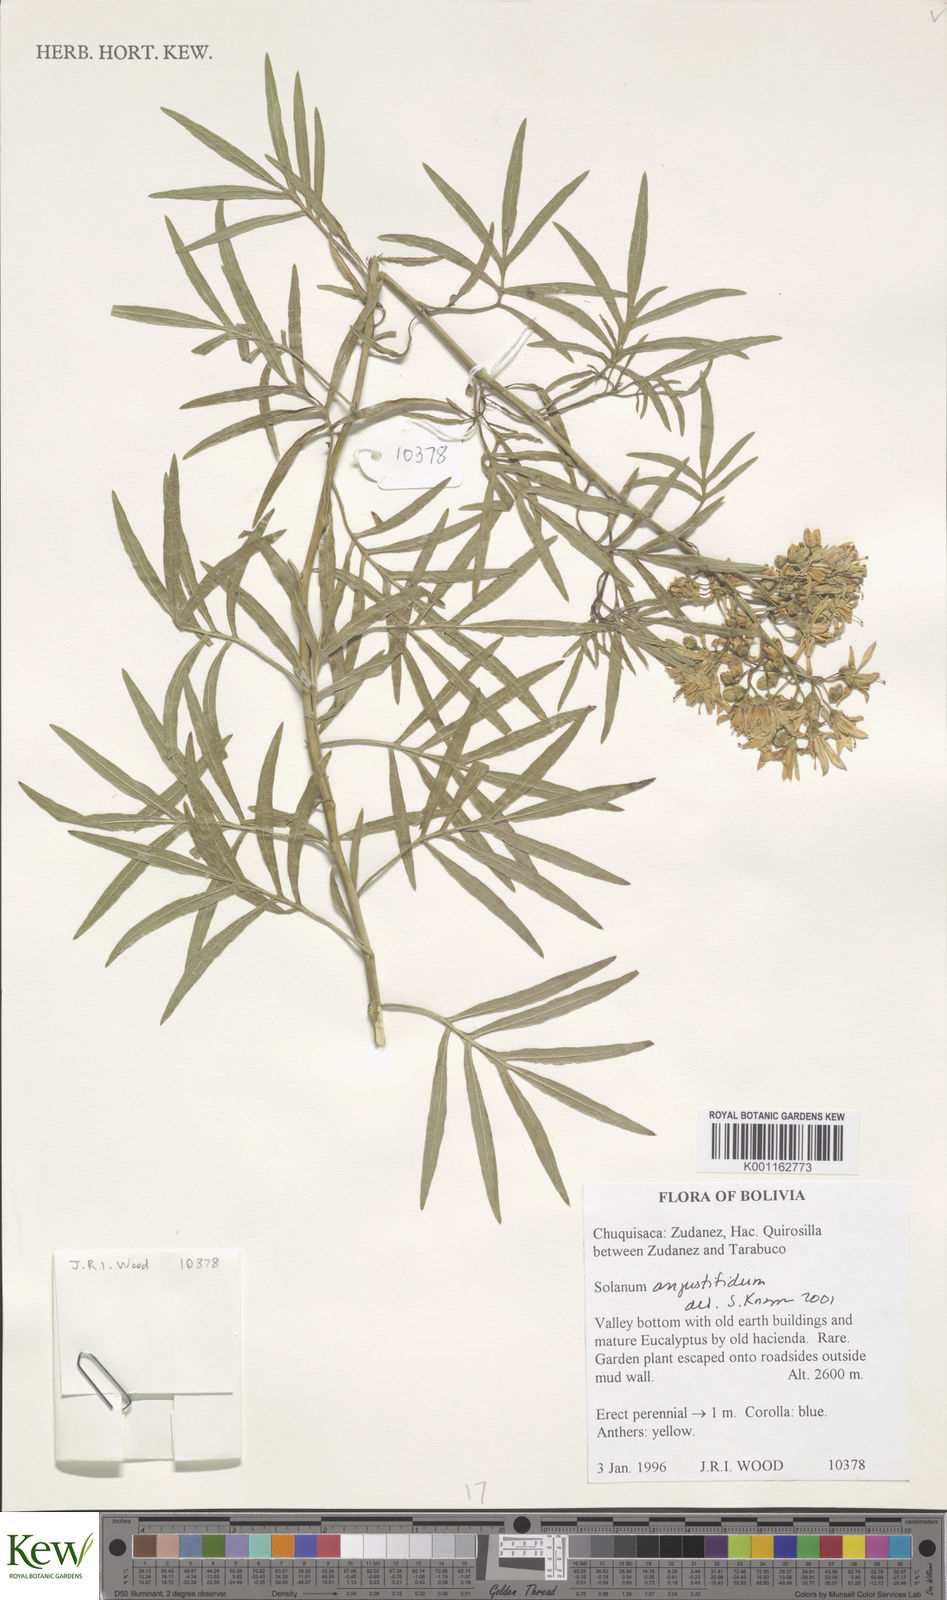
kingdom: Plantae
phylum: Tracheophyta
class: Magnoliopsida
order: Solanales
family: Solanaceae
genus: Solanum
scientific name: Solanum angustifidum
